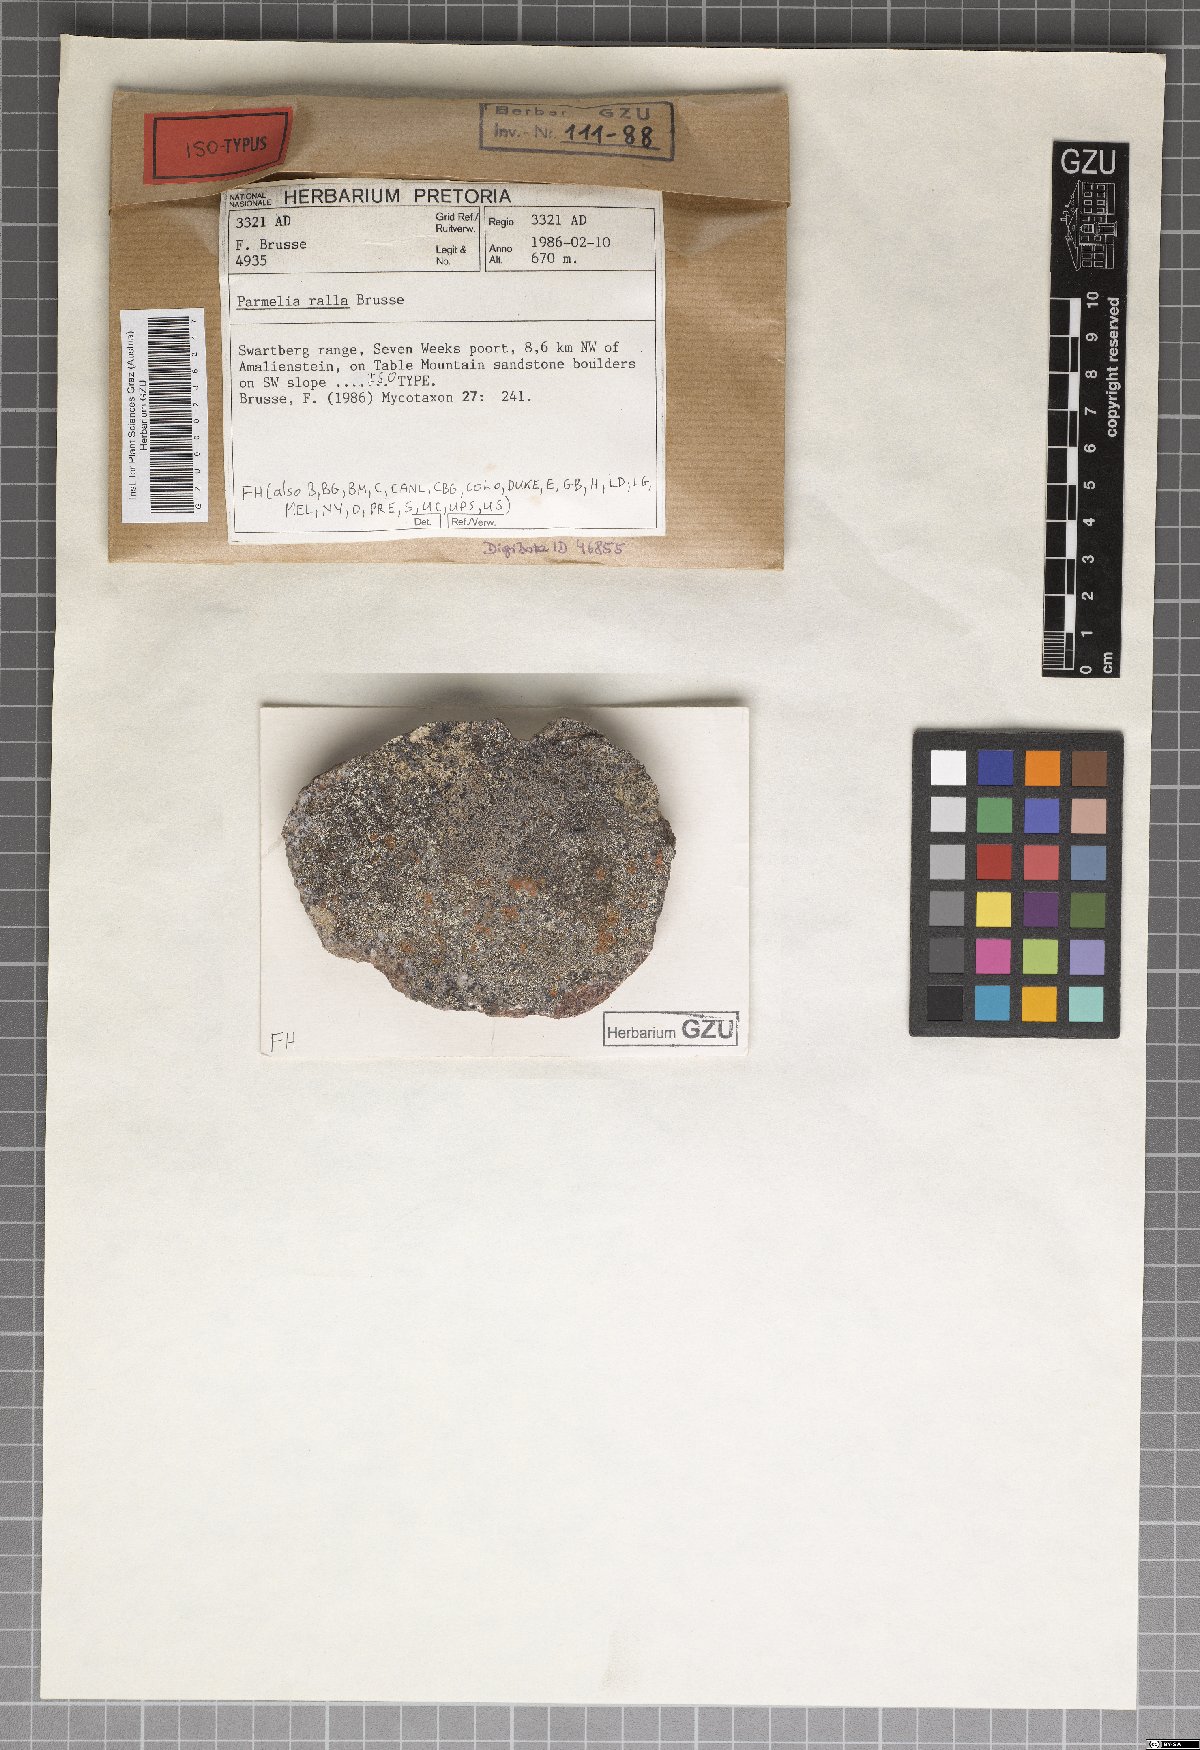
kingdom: Fungi
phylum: Ascomycota
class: Lecanoromycetes
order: Lecanorales
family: Parmeliaceae
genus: Parmelinella
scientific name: Parmelinella
